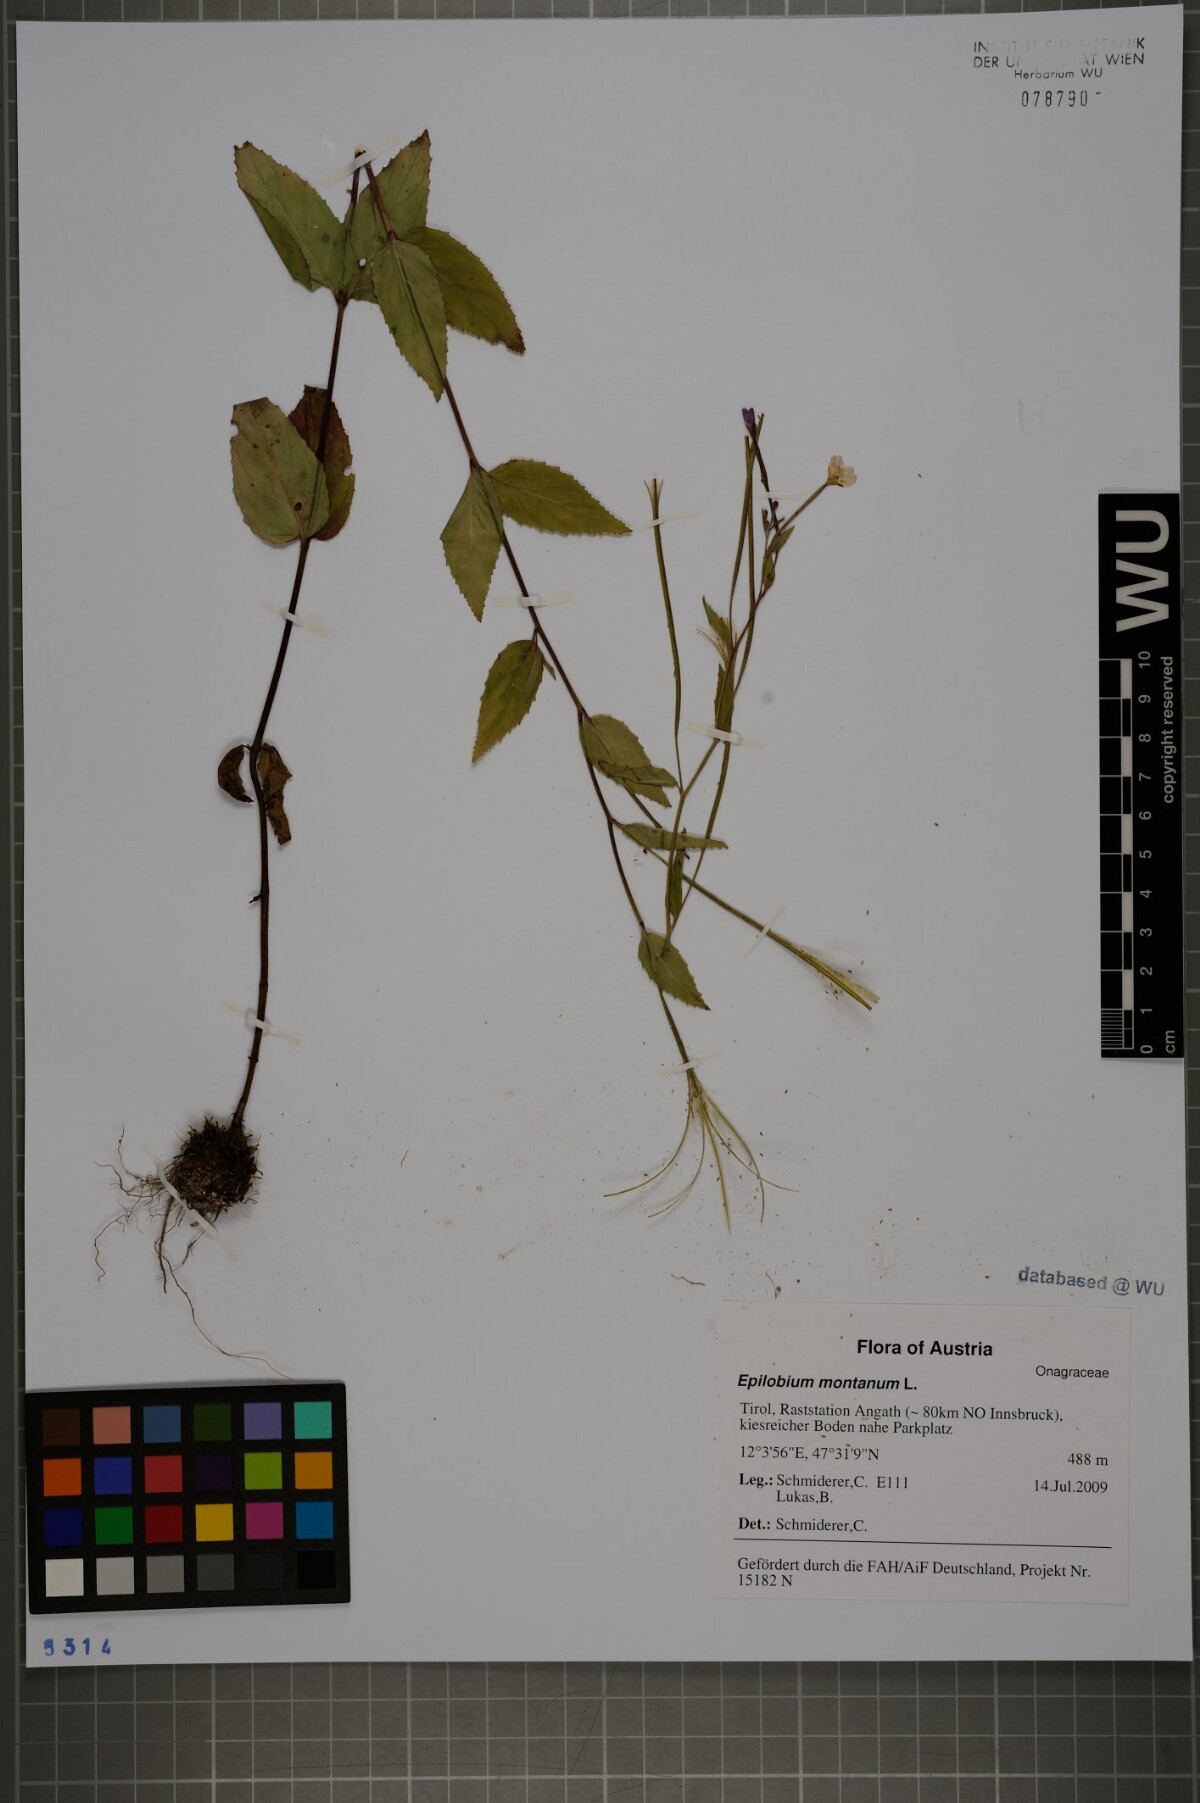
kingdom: Plantae
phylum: Tracheophyta
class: Magnoliopsida
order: Myrtales
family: Onagraceae
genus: Epilobium
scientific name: Epilobium montanum
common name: Broad-leaved willowherb
